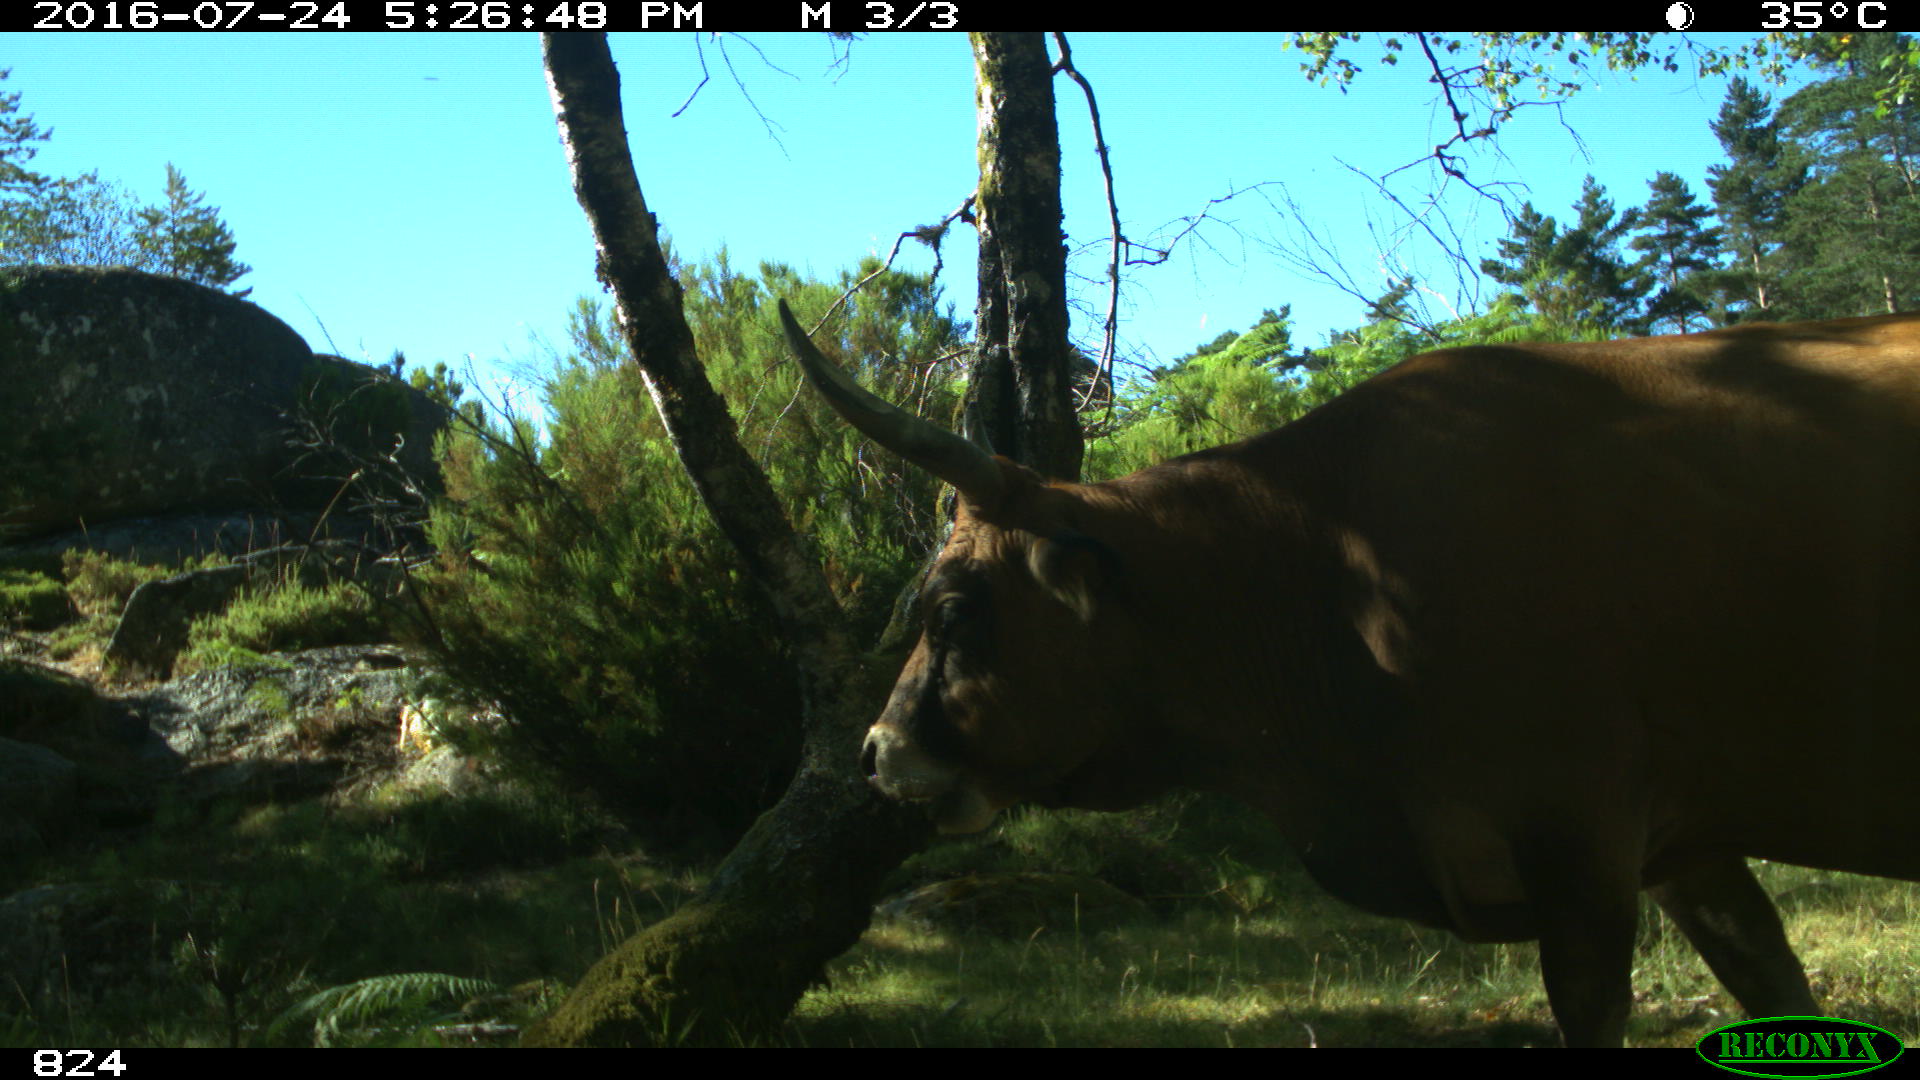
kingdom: Animalia
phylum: Chordata
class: Mammalia
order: Artiodactyla
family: Bovidae
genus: Bos
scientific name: Bos taurus
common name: Domesticated cattle
